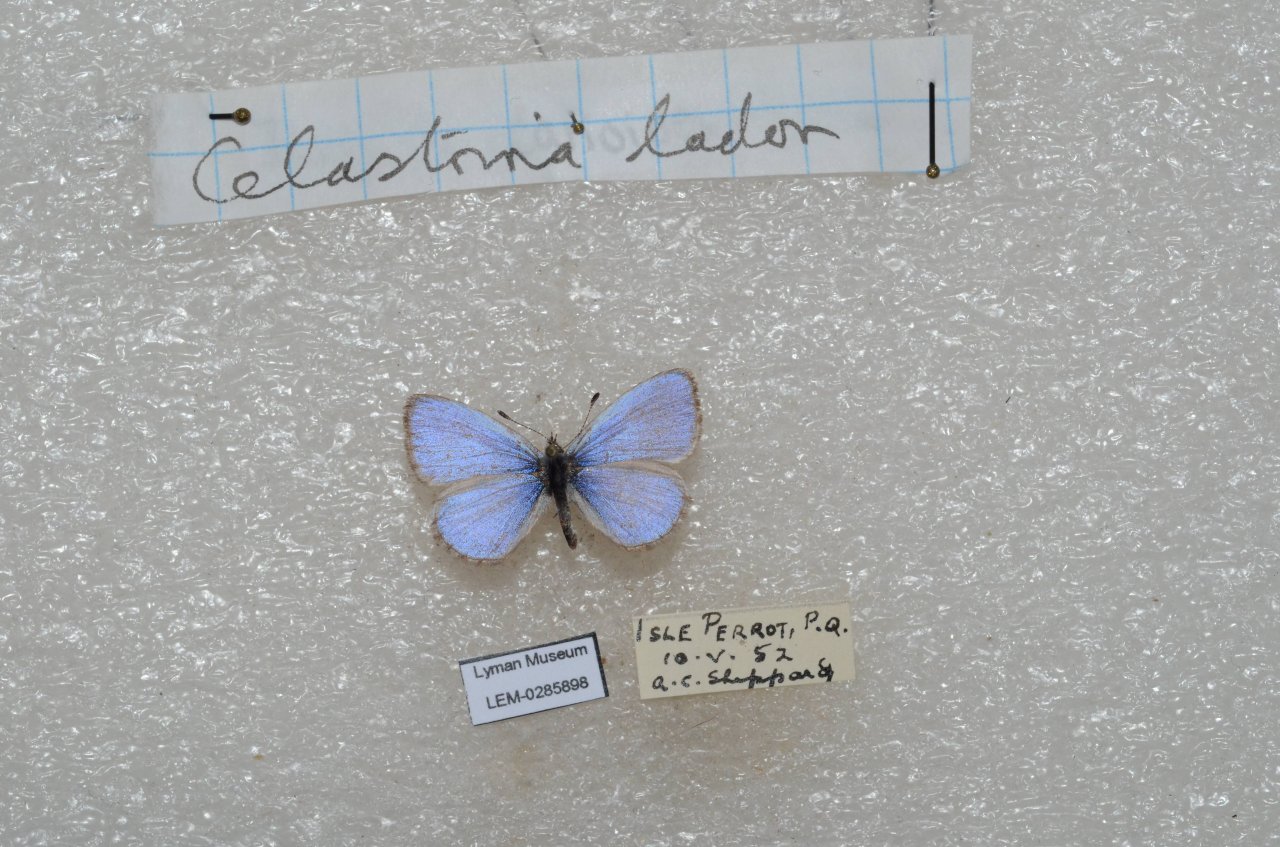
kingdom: Animalia
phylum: Arthropoda
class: Insecta
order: Lepidoptera
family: Lycaenidae
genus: Celastrina
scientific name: Celastrina lucia
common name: Northern Spring Azure
